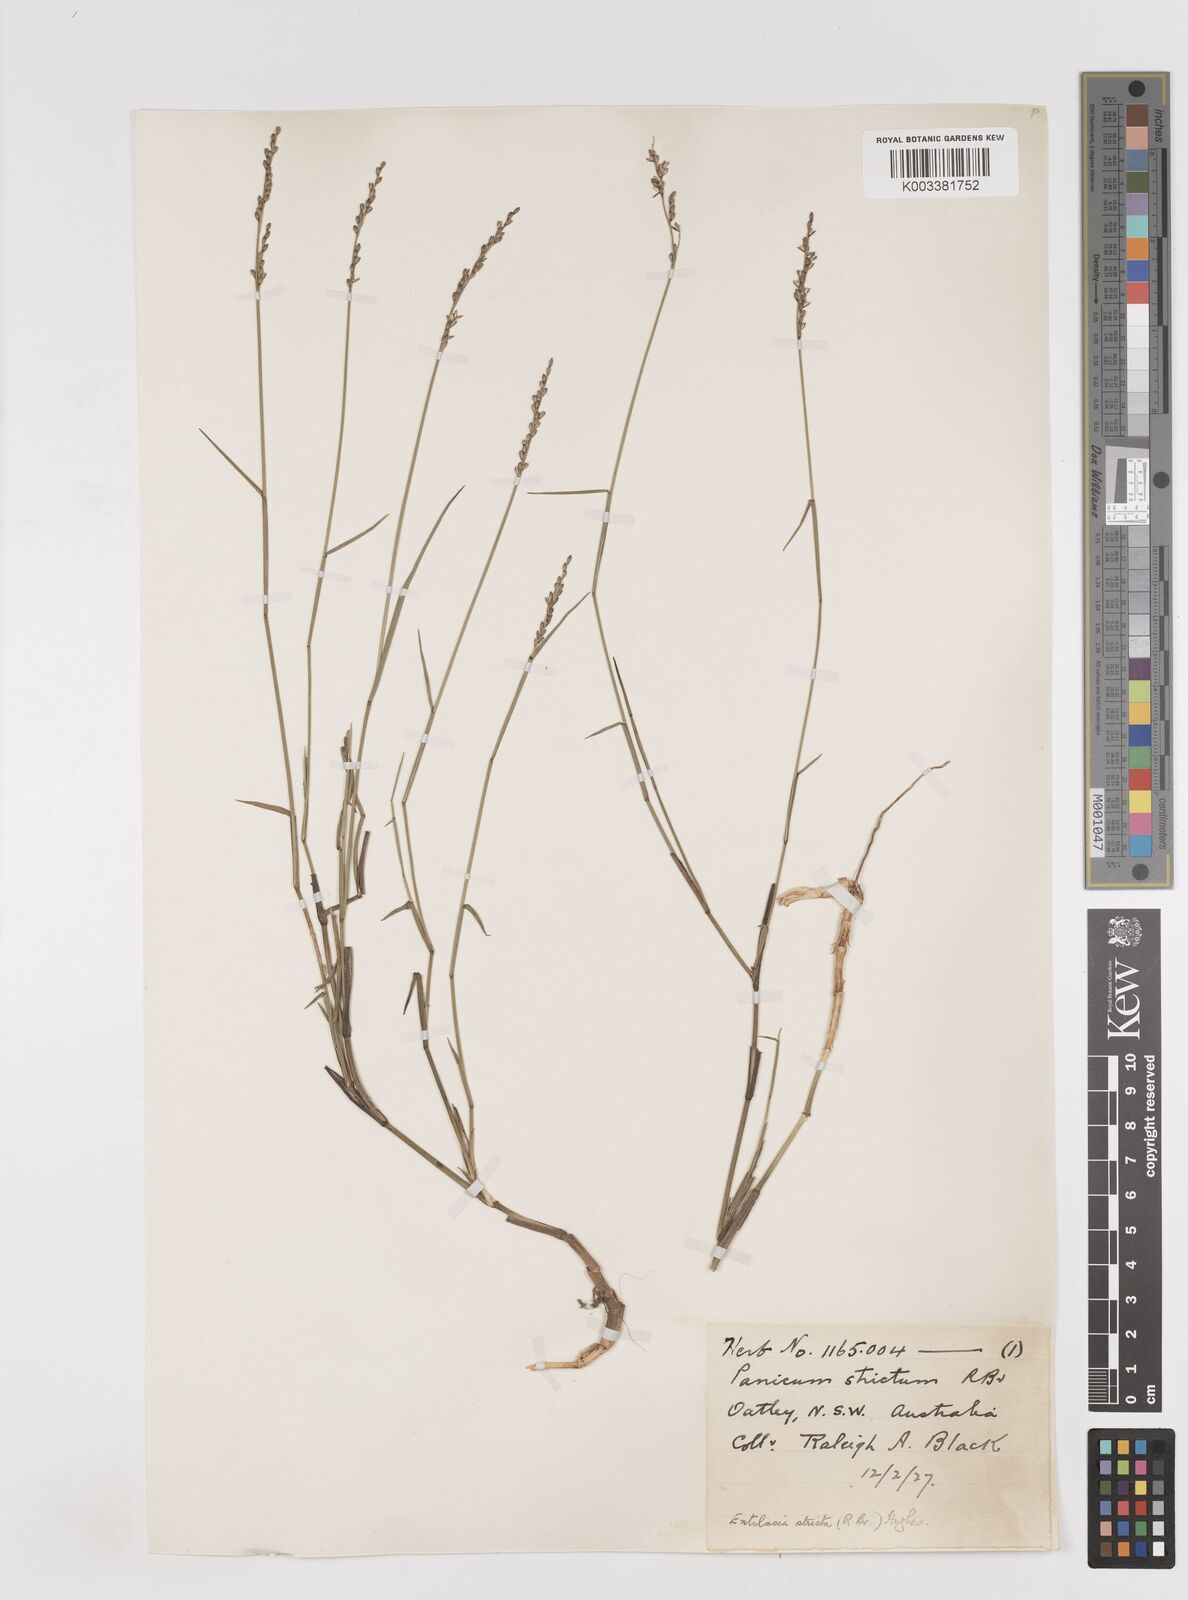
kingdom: Plantae
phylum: Tracheophyta
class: Liliopsida
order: Poales
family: Poaceae
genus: Entolasia
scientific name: Entolasia stricta
